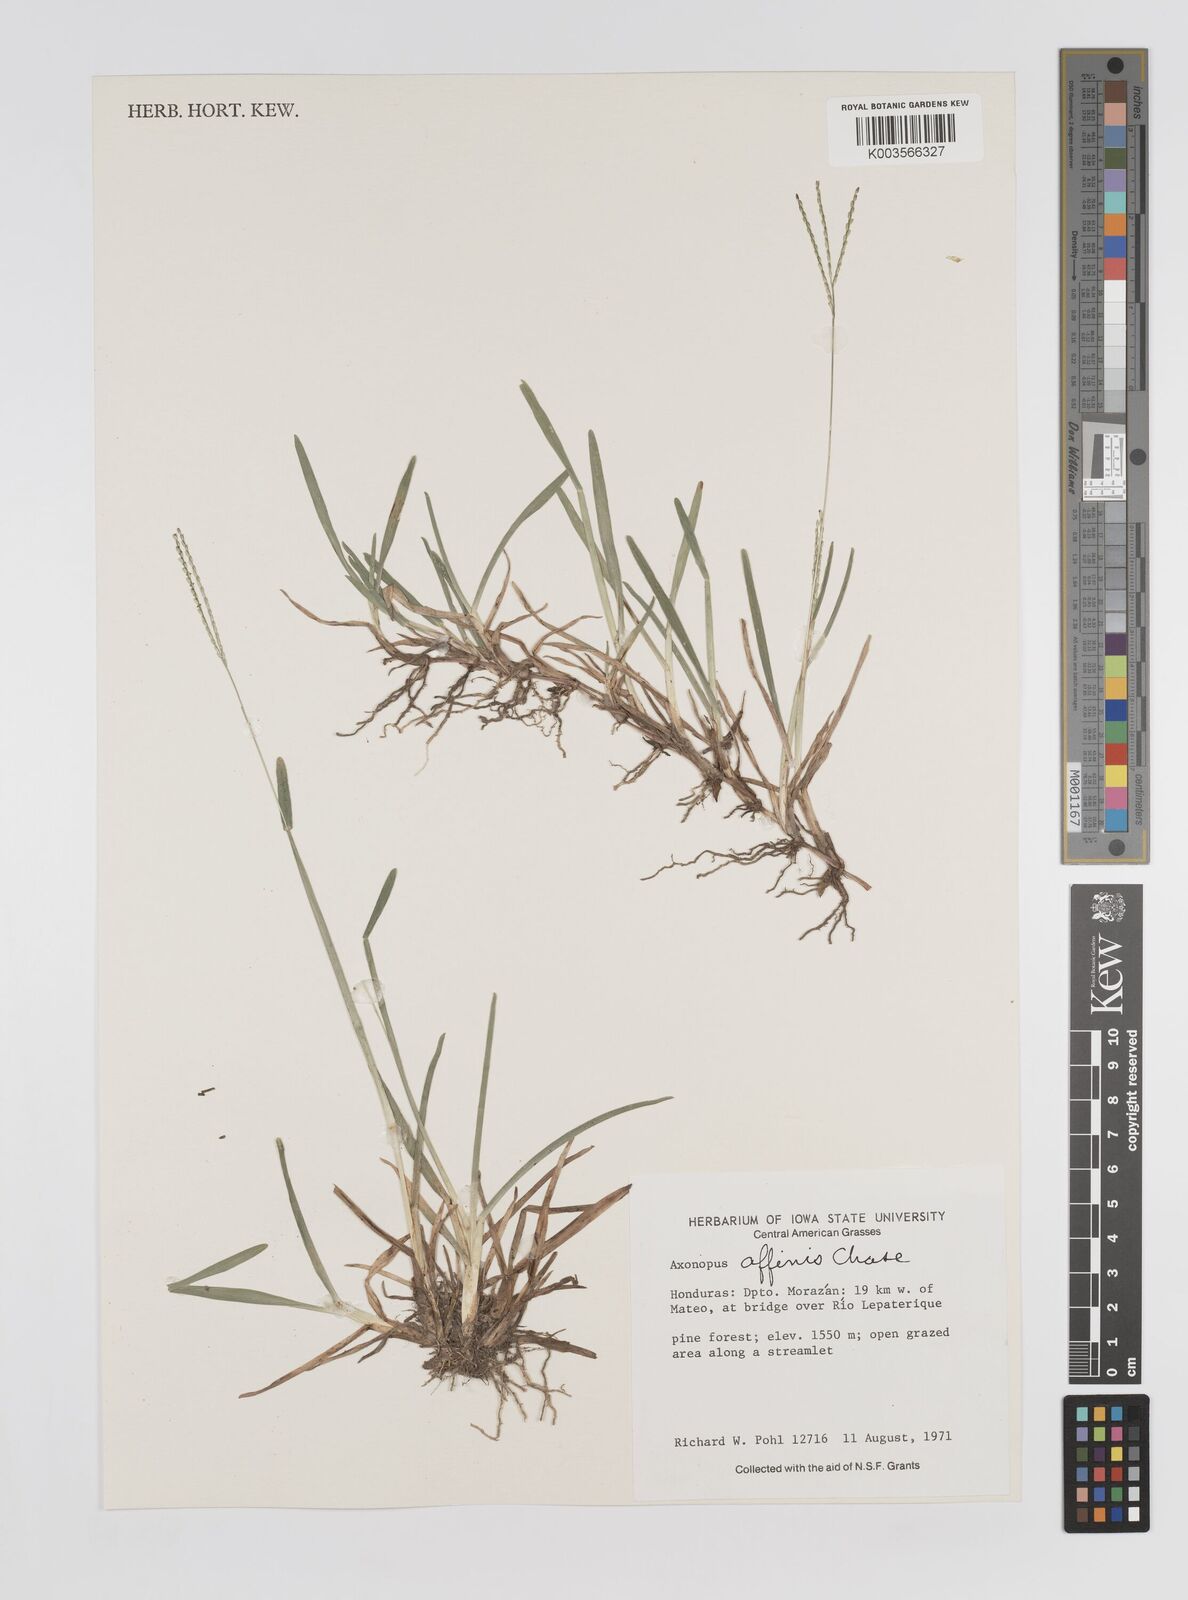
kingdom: Plantae
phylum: Tracheophyta
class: Liliopsida
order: Poales
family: Poaceae
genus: Axonopus
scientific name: Axonopus fissifolius
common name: Common carpetgrass
